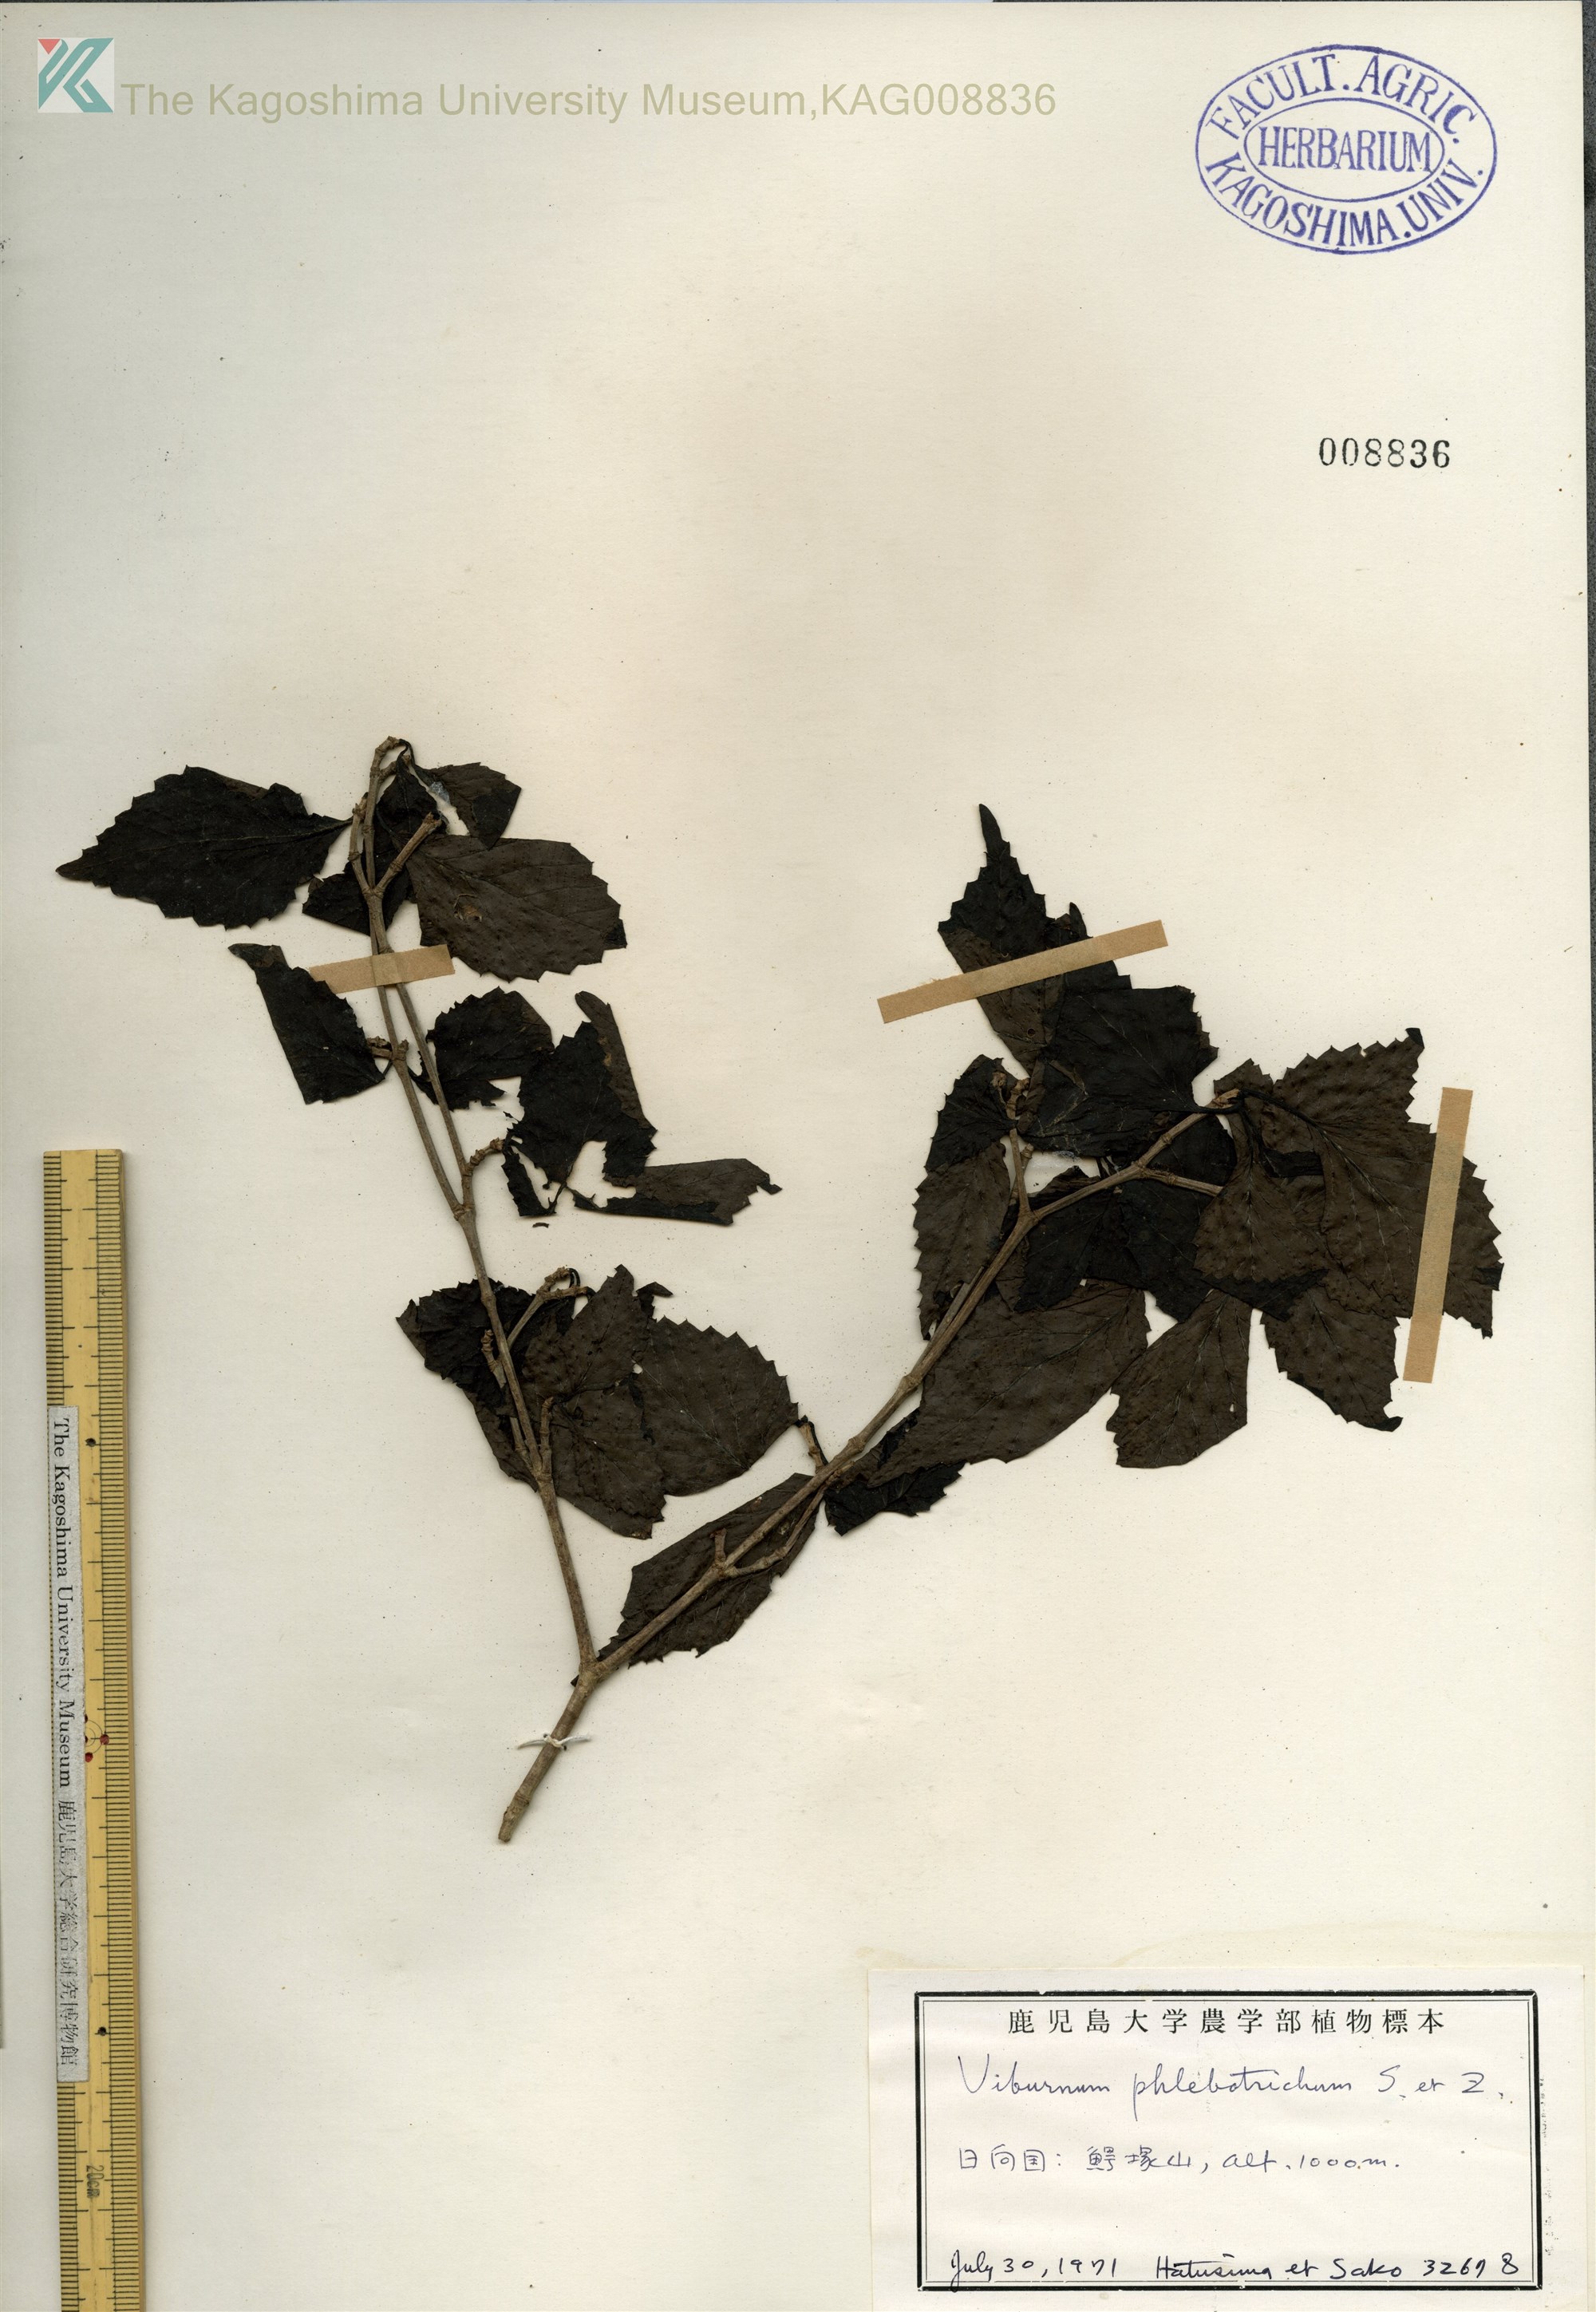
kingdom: Plantae
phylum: Tracheophyta
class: Magnoliopsida
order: Dipsacales
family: Viburnaceae
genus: Viburnum
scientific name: Viburnum phlebotrichum
